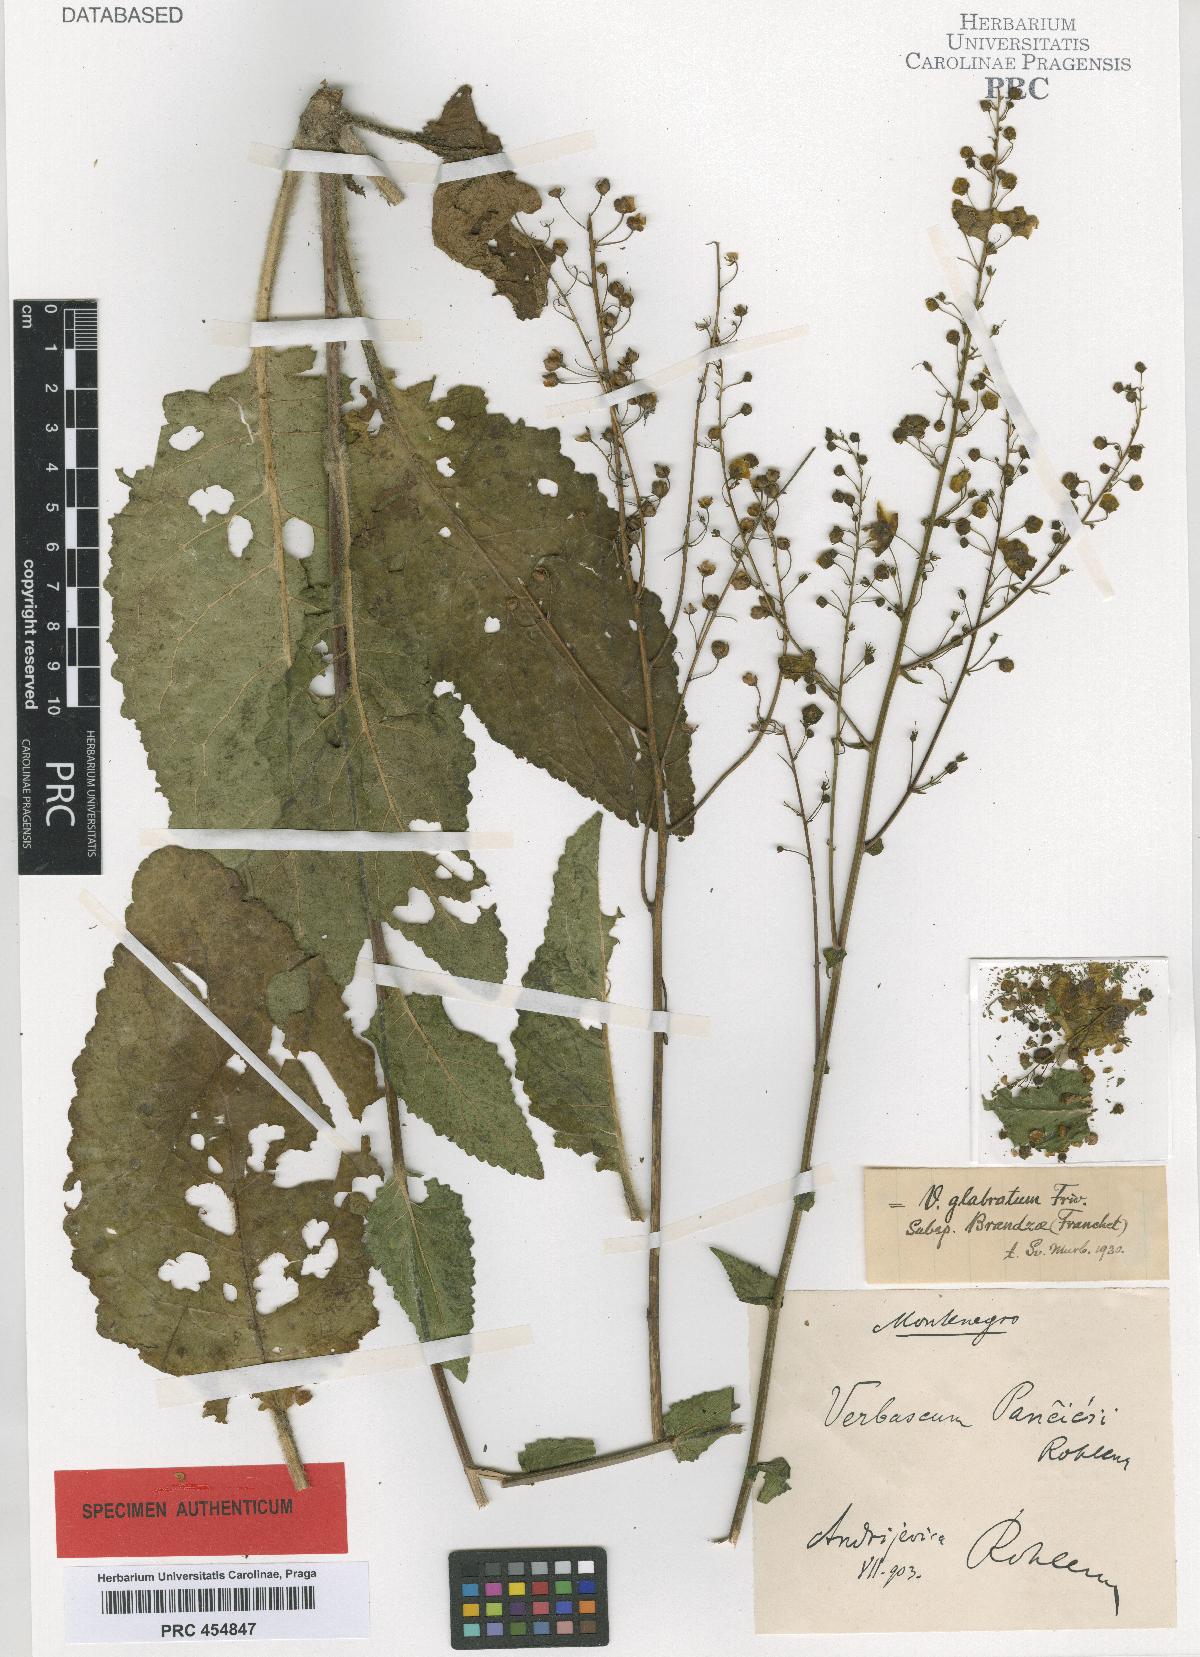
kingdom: Plantae
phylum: Tracheophyta
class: Magnoliopsida
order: Lamiales
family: Scrophulariaceae
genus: Verbascum
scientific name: Verbascum glabratum
